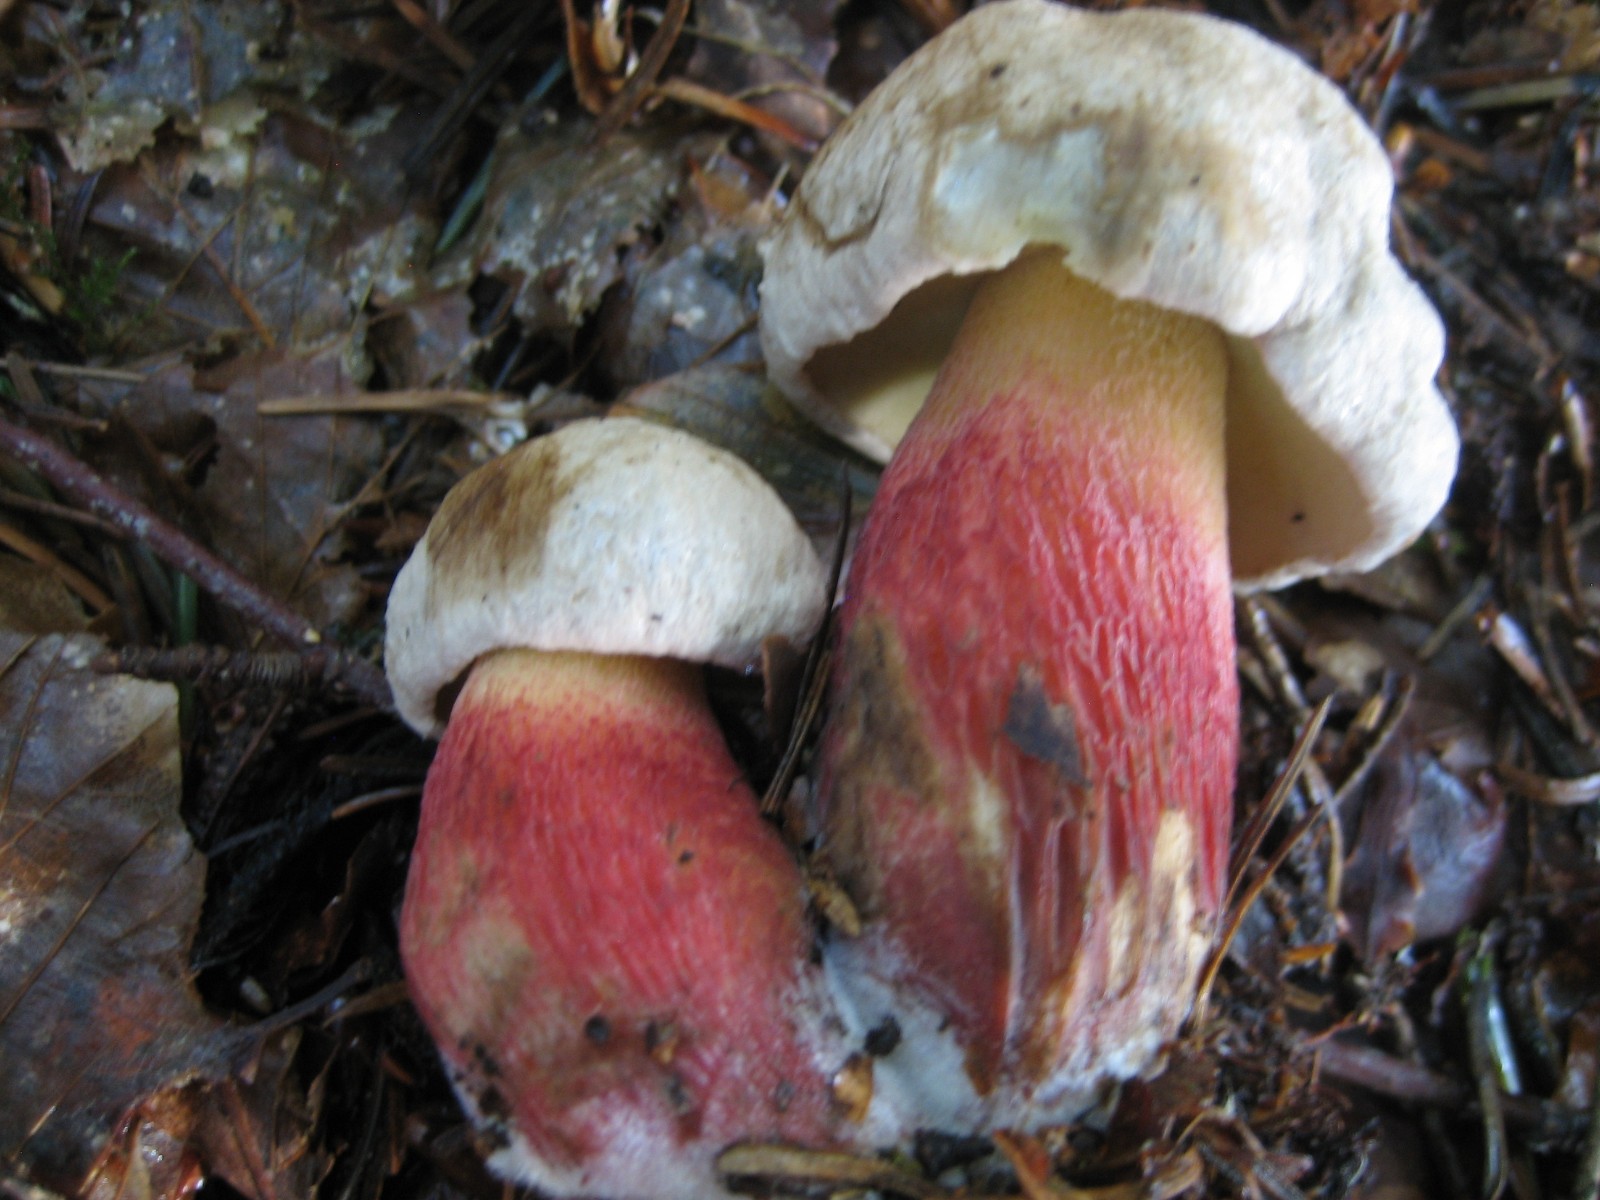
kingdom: Fungi
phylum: Basidiomycota
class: Agaricomycetes
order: Boletales
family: Boletaceae
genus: Caloboletus
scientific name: Caloboletus calopus
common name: skønfodet rørhat
